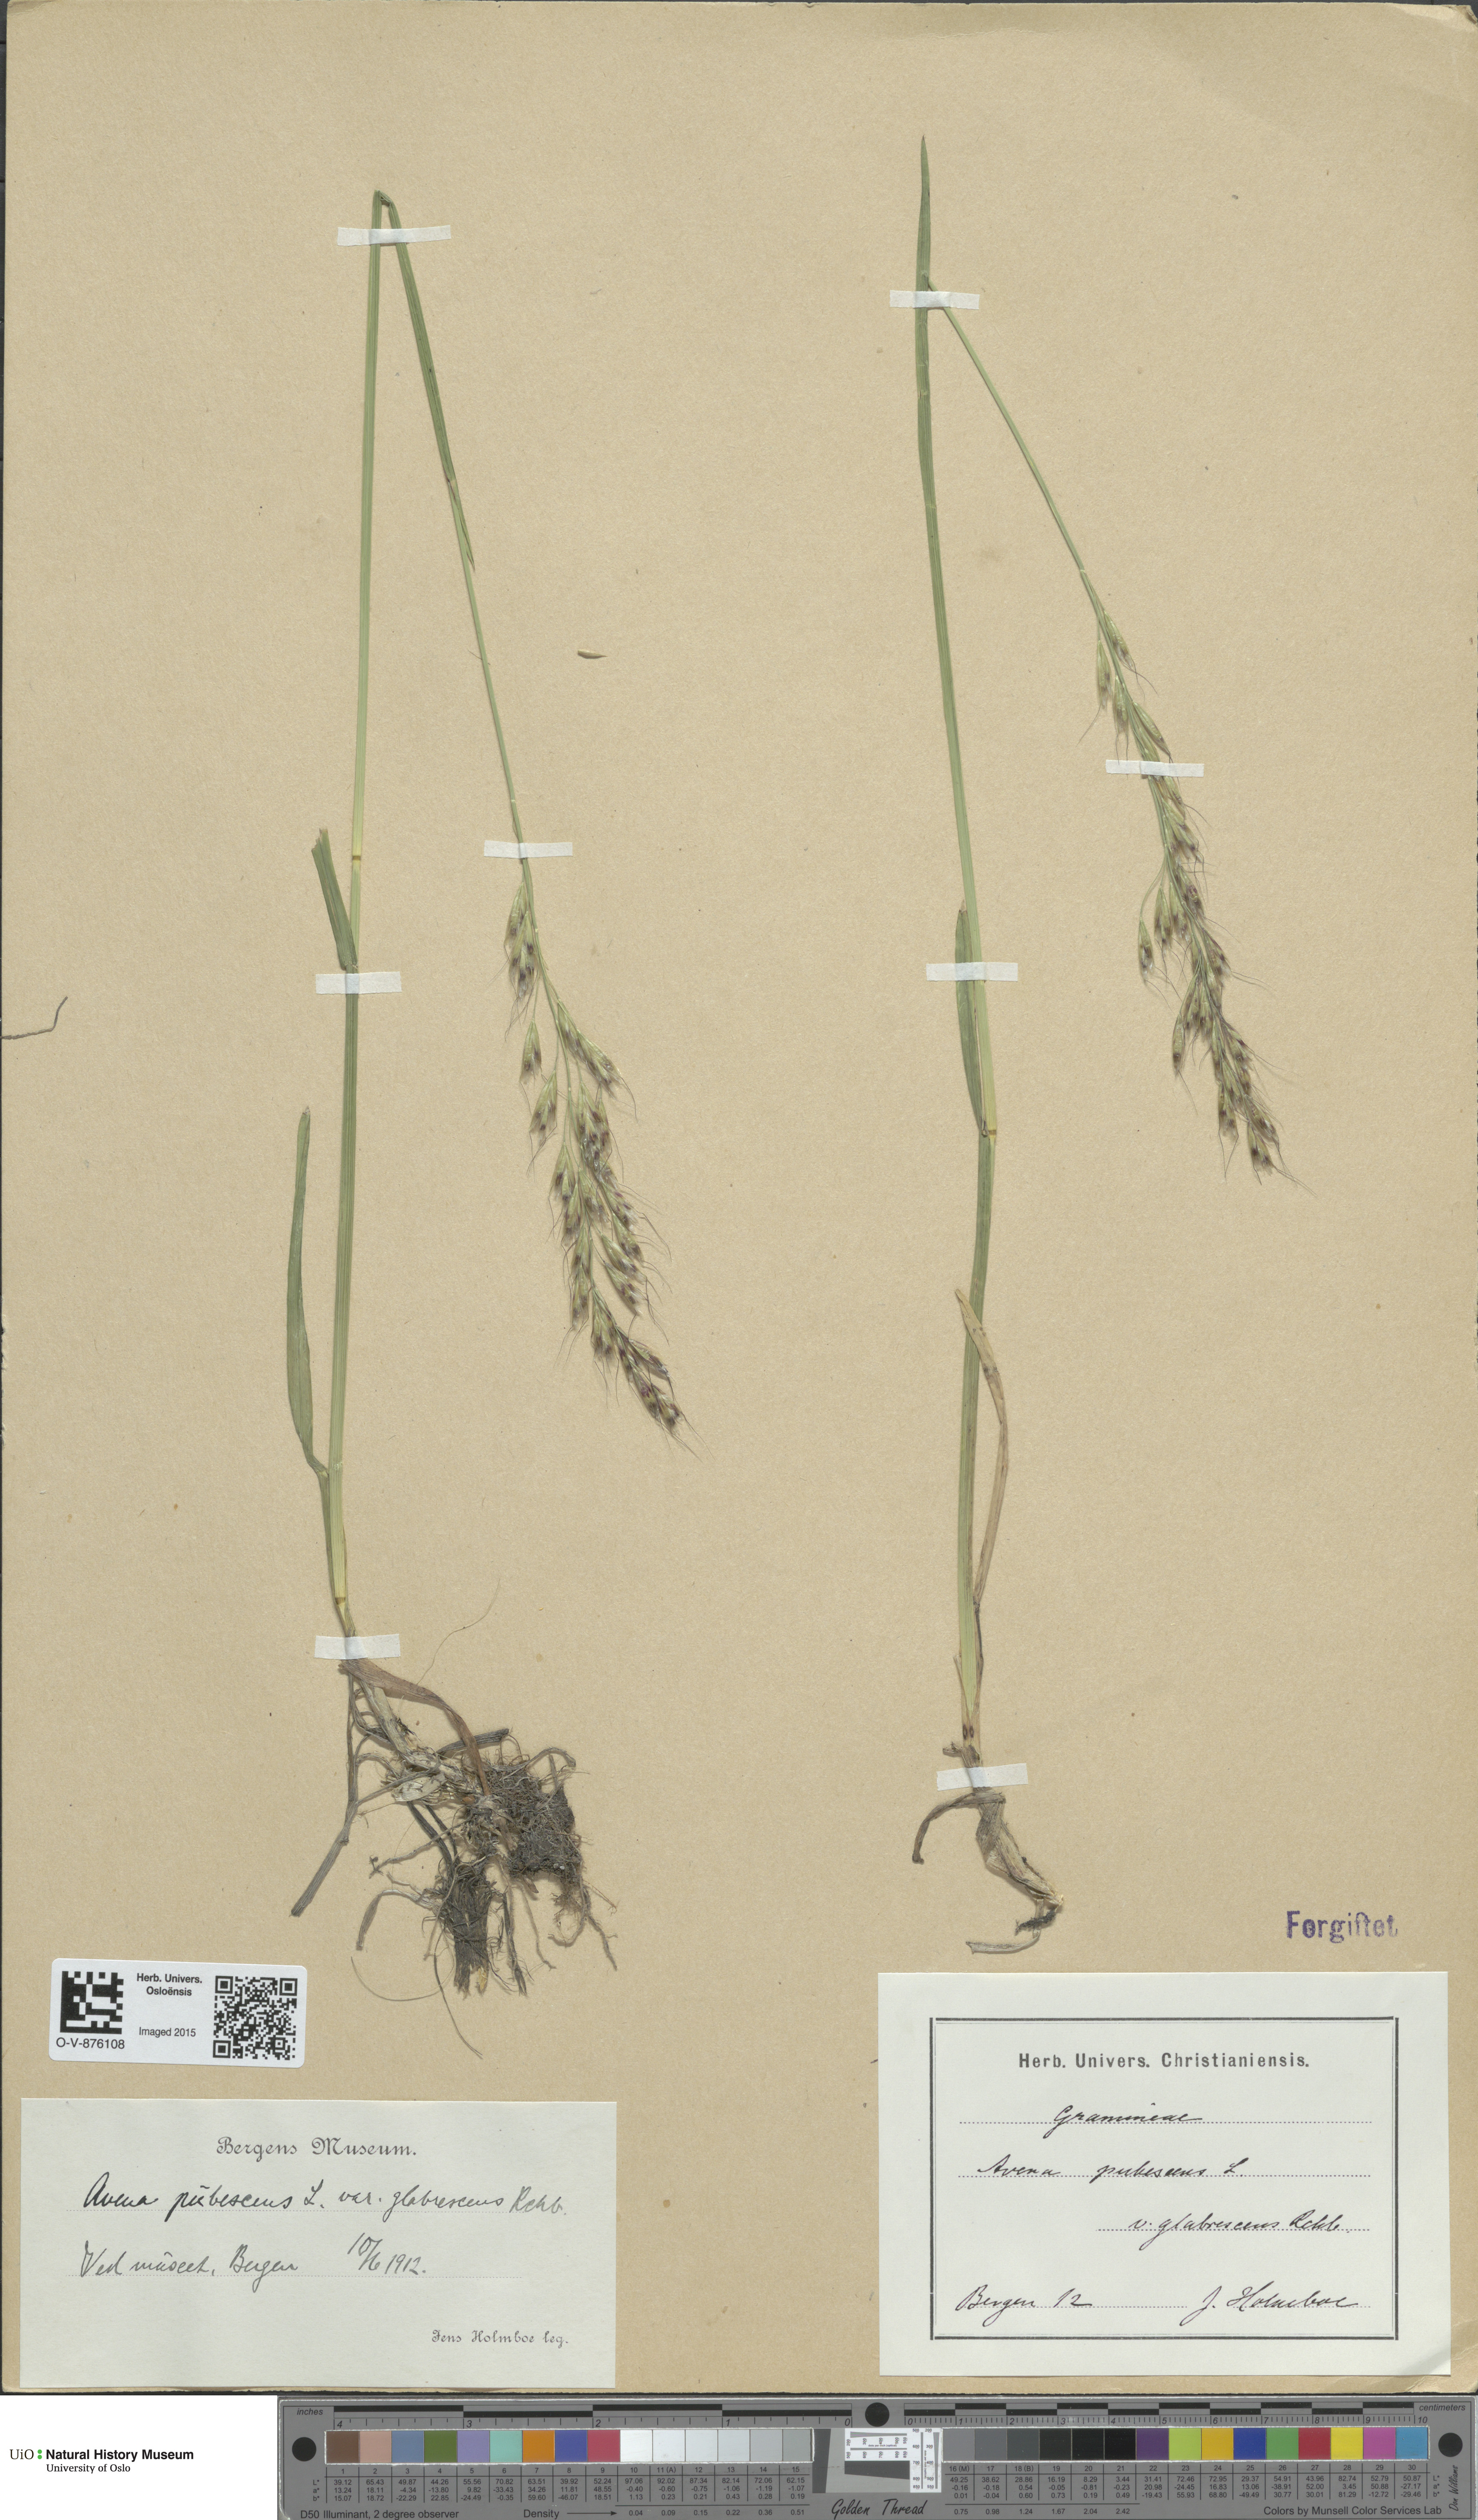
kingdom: Plantae
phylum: Tracheophyta
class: Liliopsida
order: Poales
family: Poaceae
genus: Avenula
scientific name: Avenula pubescens
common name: Downy alpine oatgrass
